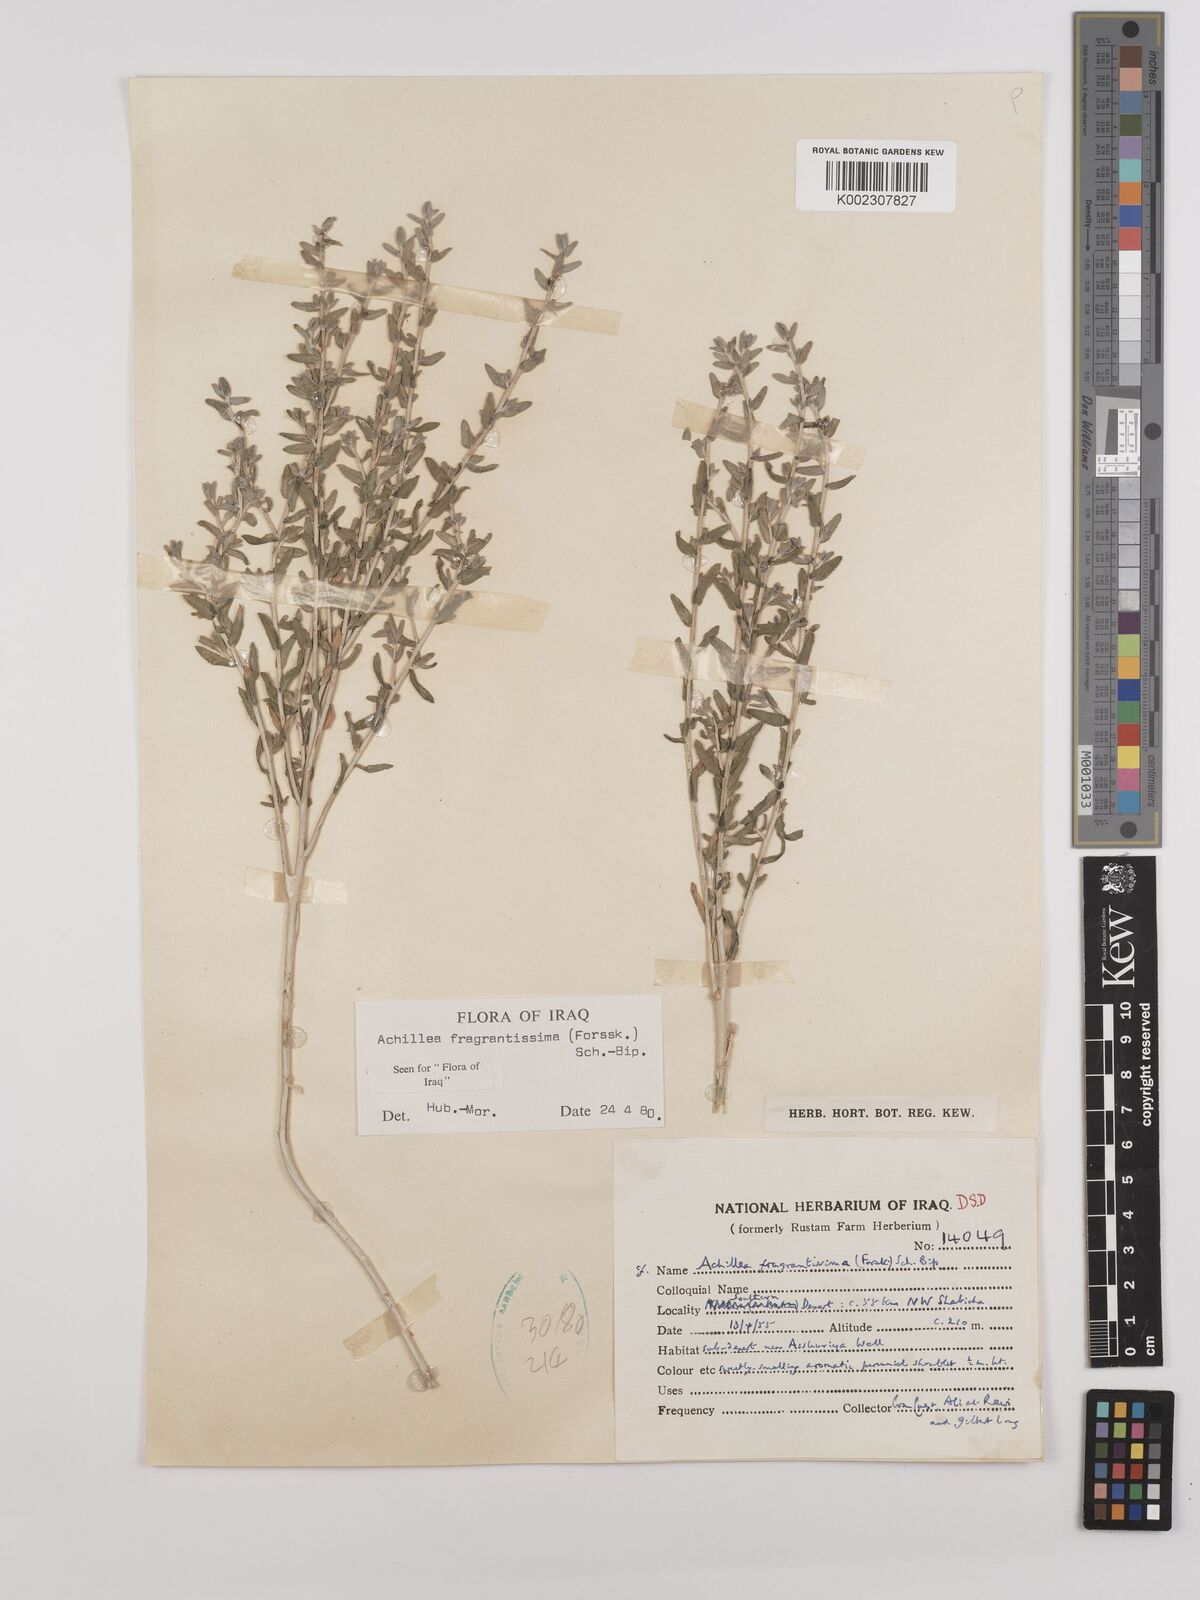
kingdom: Plantae
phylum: Tracheophyta
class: Magnoliopsida
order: Asterales
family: Asteraceae
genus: Achillea
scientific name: Achillea fragrantissima
